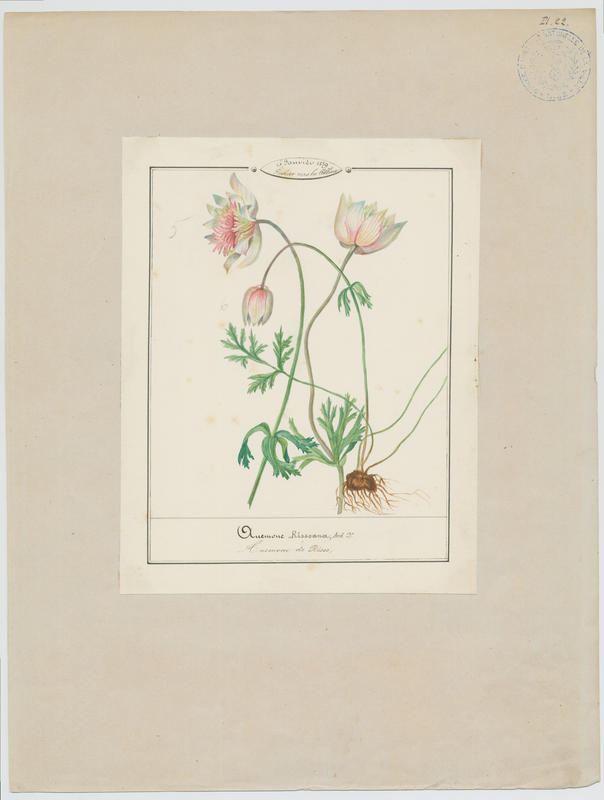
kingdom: Plantae
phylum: Tracheophyta
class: Magnoliopsida
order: Ranunculales
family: Ranunculaceae
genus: Anemone
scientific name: Anemone coronaria
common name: Poppy anemone
